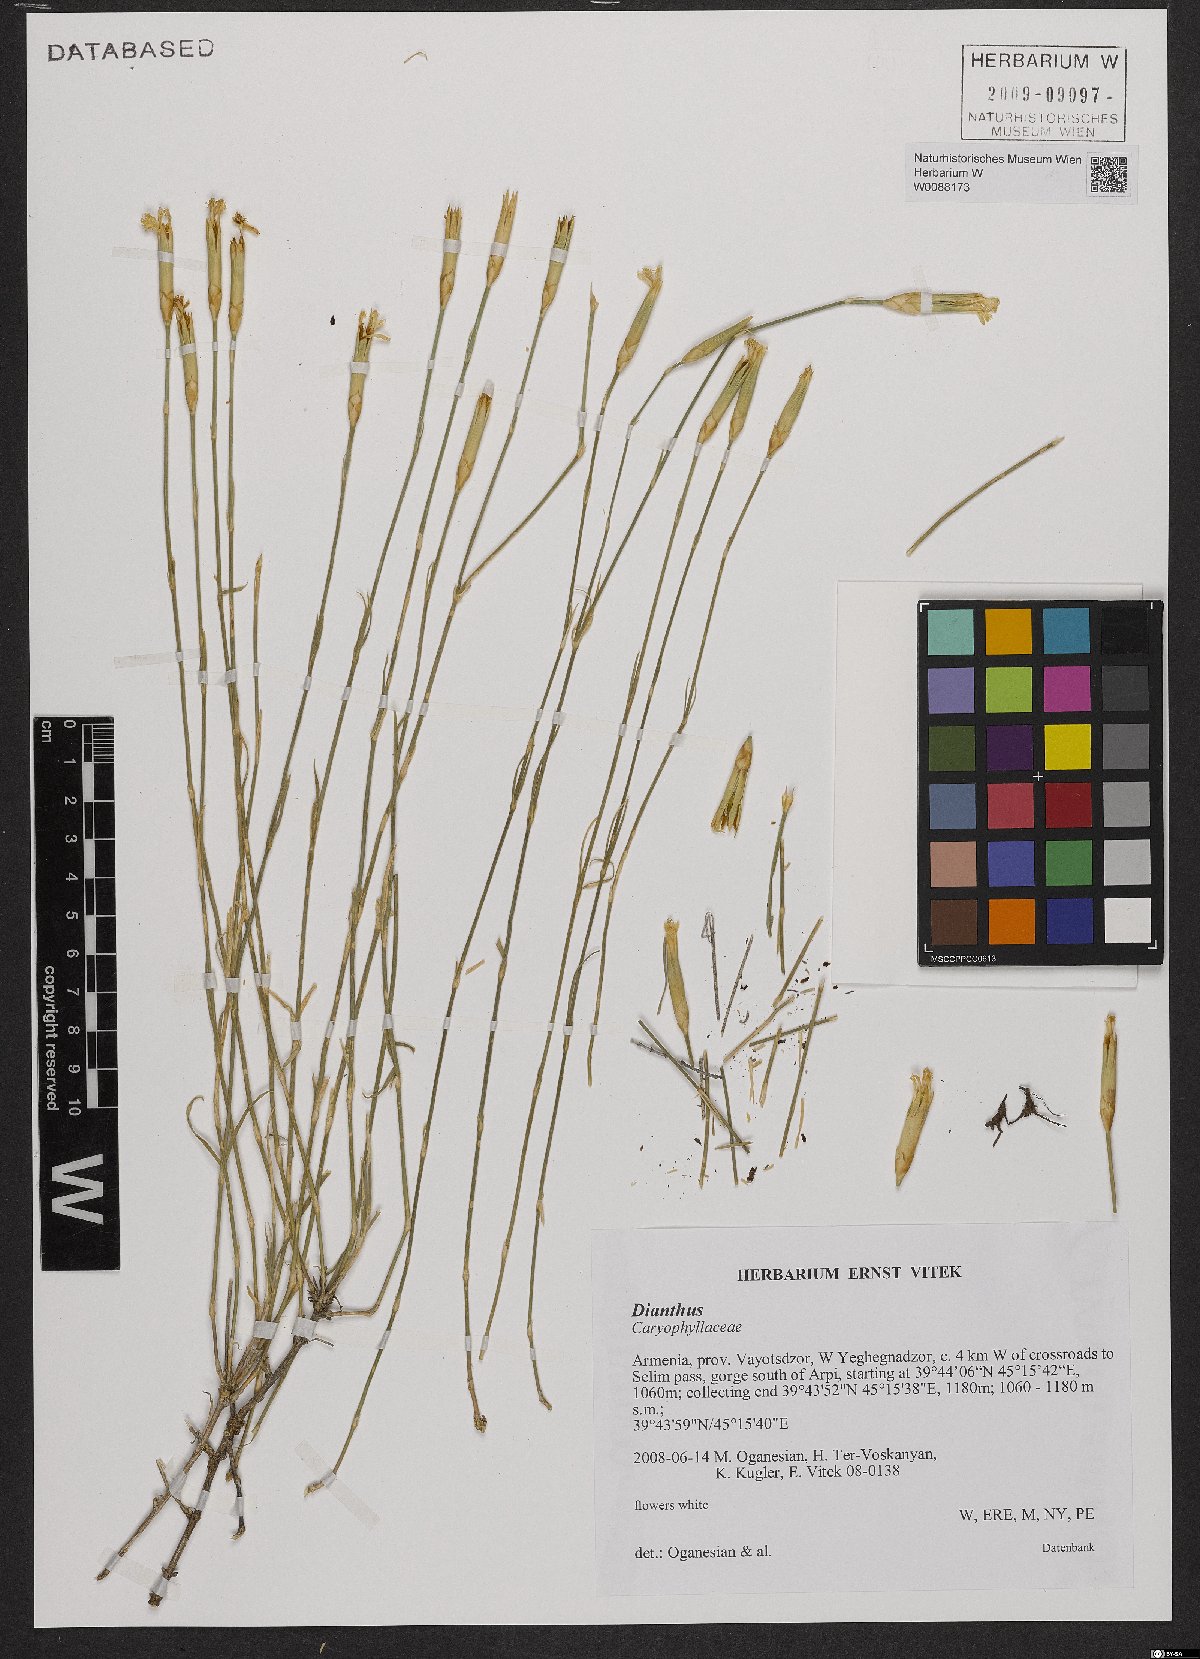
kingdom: Plantae
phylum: Tracheophyta
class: Magnoliopsida
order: Caryophyllales
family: Caryophyllaceae
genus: Dianthus
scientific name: Dianthus
